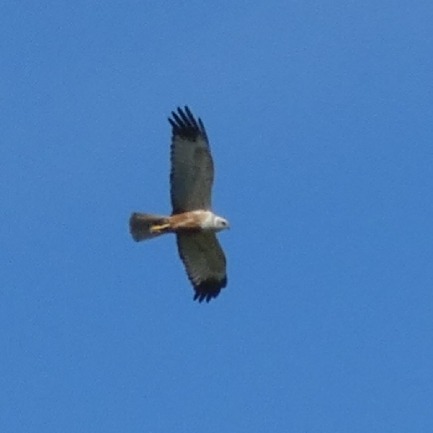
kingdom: Animalia
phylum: Chordata
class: Aves
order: Accipitriformes
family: Accipitridae
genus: Circus
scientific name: Circus aeruginosus
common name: Rørhøg
